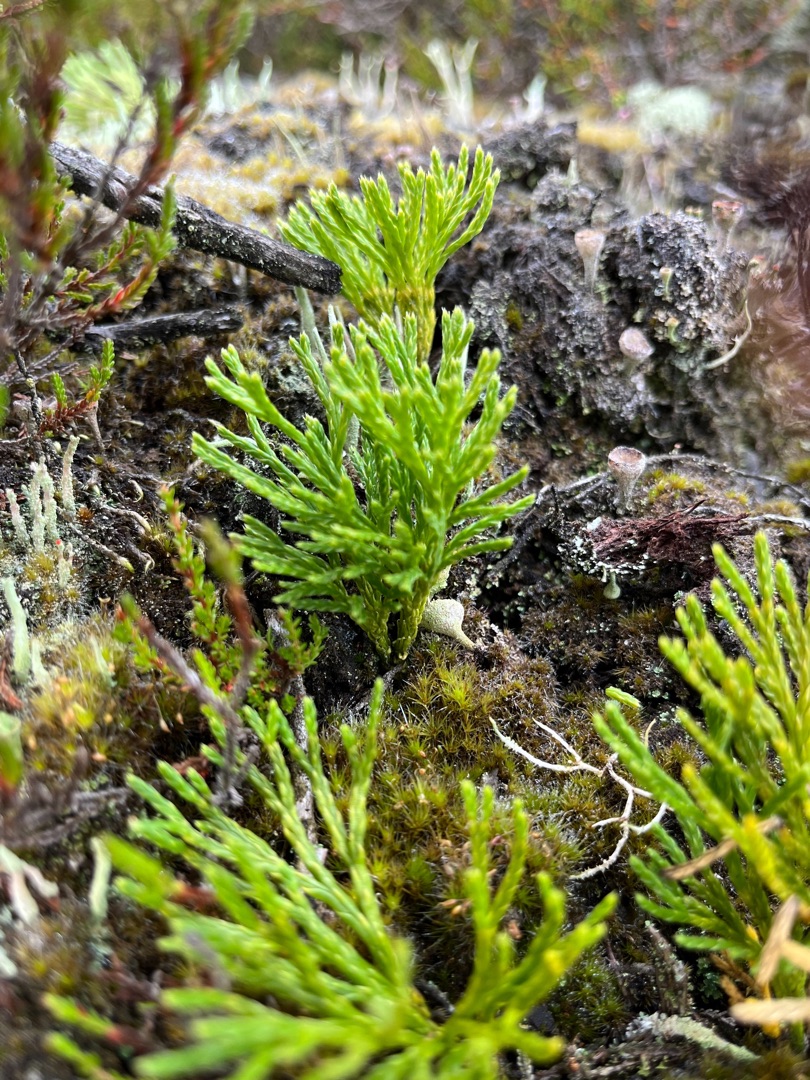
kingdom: Plantae
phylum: Tracheophyta
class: Lycopodiopsida
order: Lycopodiales
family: Lycopodiaceae
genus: Diphasiastrum
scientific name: Diphasiastrum tristachyum
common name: Cypres-ulvefod
